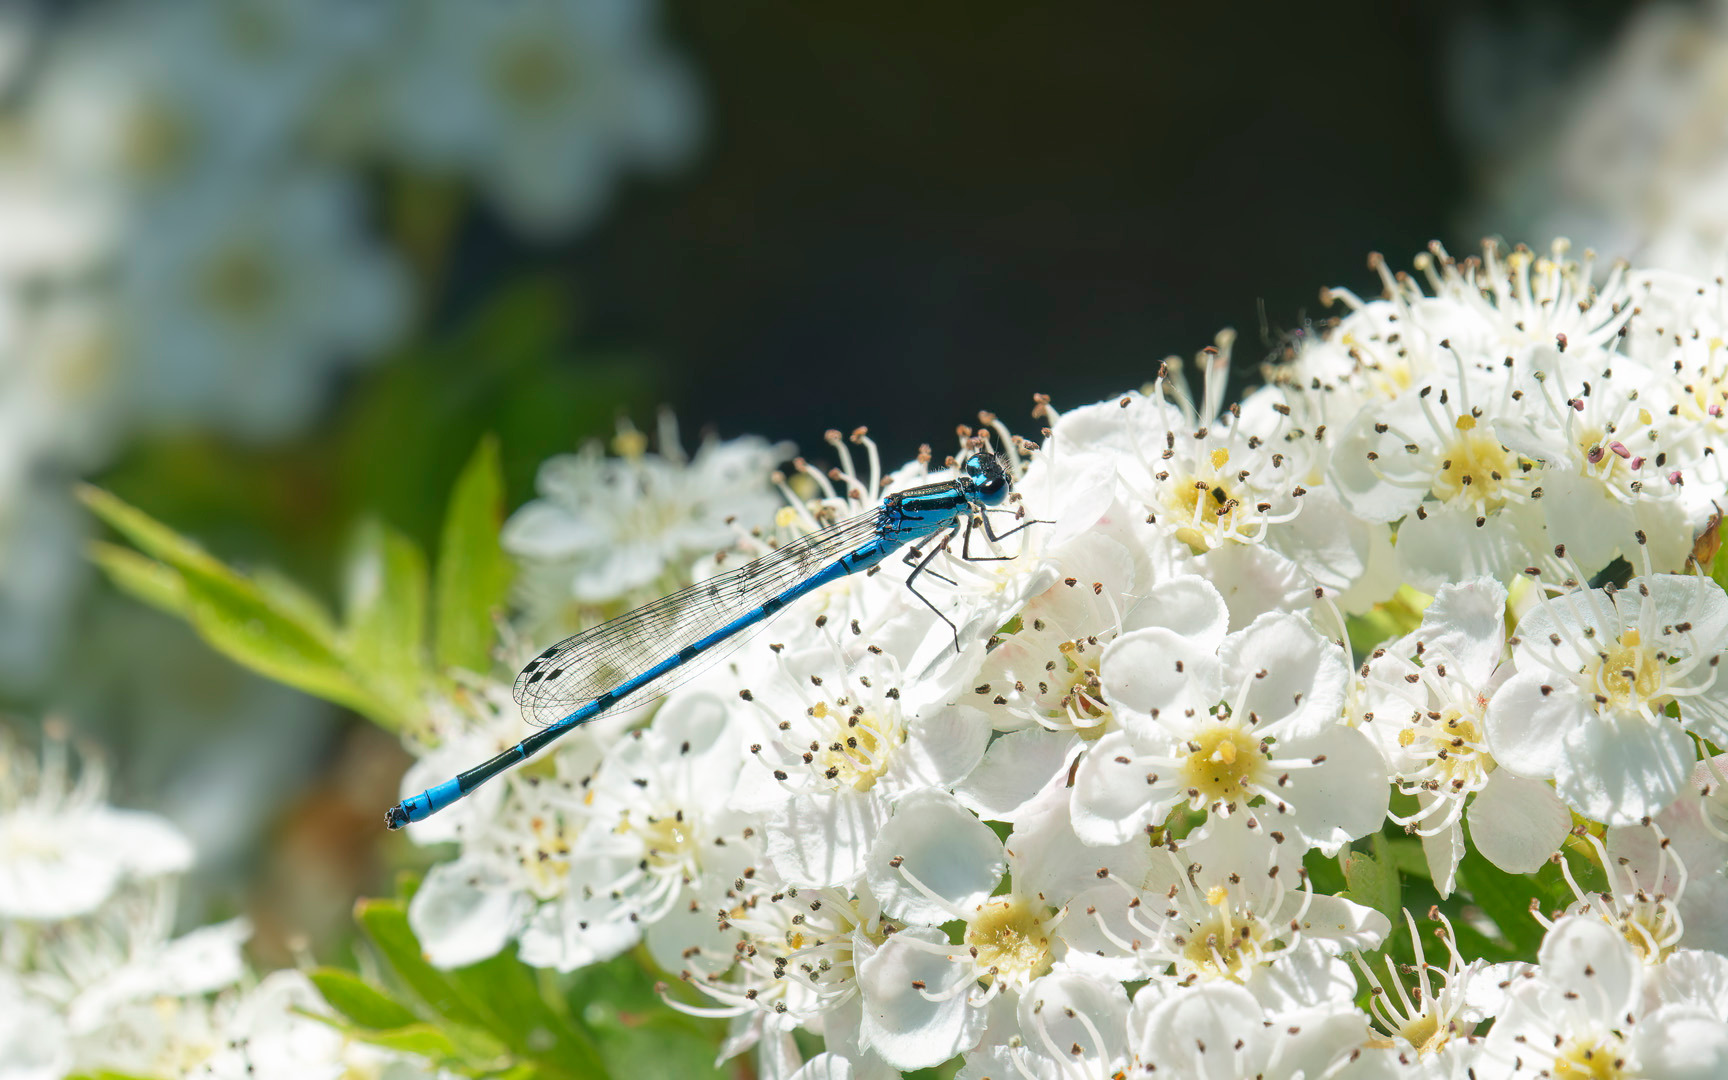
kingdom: Animalia
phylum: Arthropoda
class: Insecta
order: Odonata
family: Coenagrionidae
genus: Coenagrion
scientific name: Coenagrion puella
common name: Hestesko-vandnymfe
